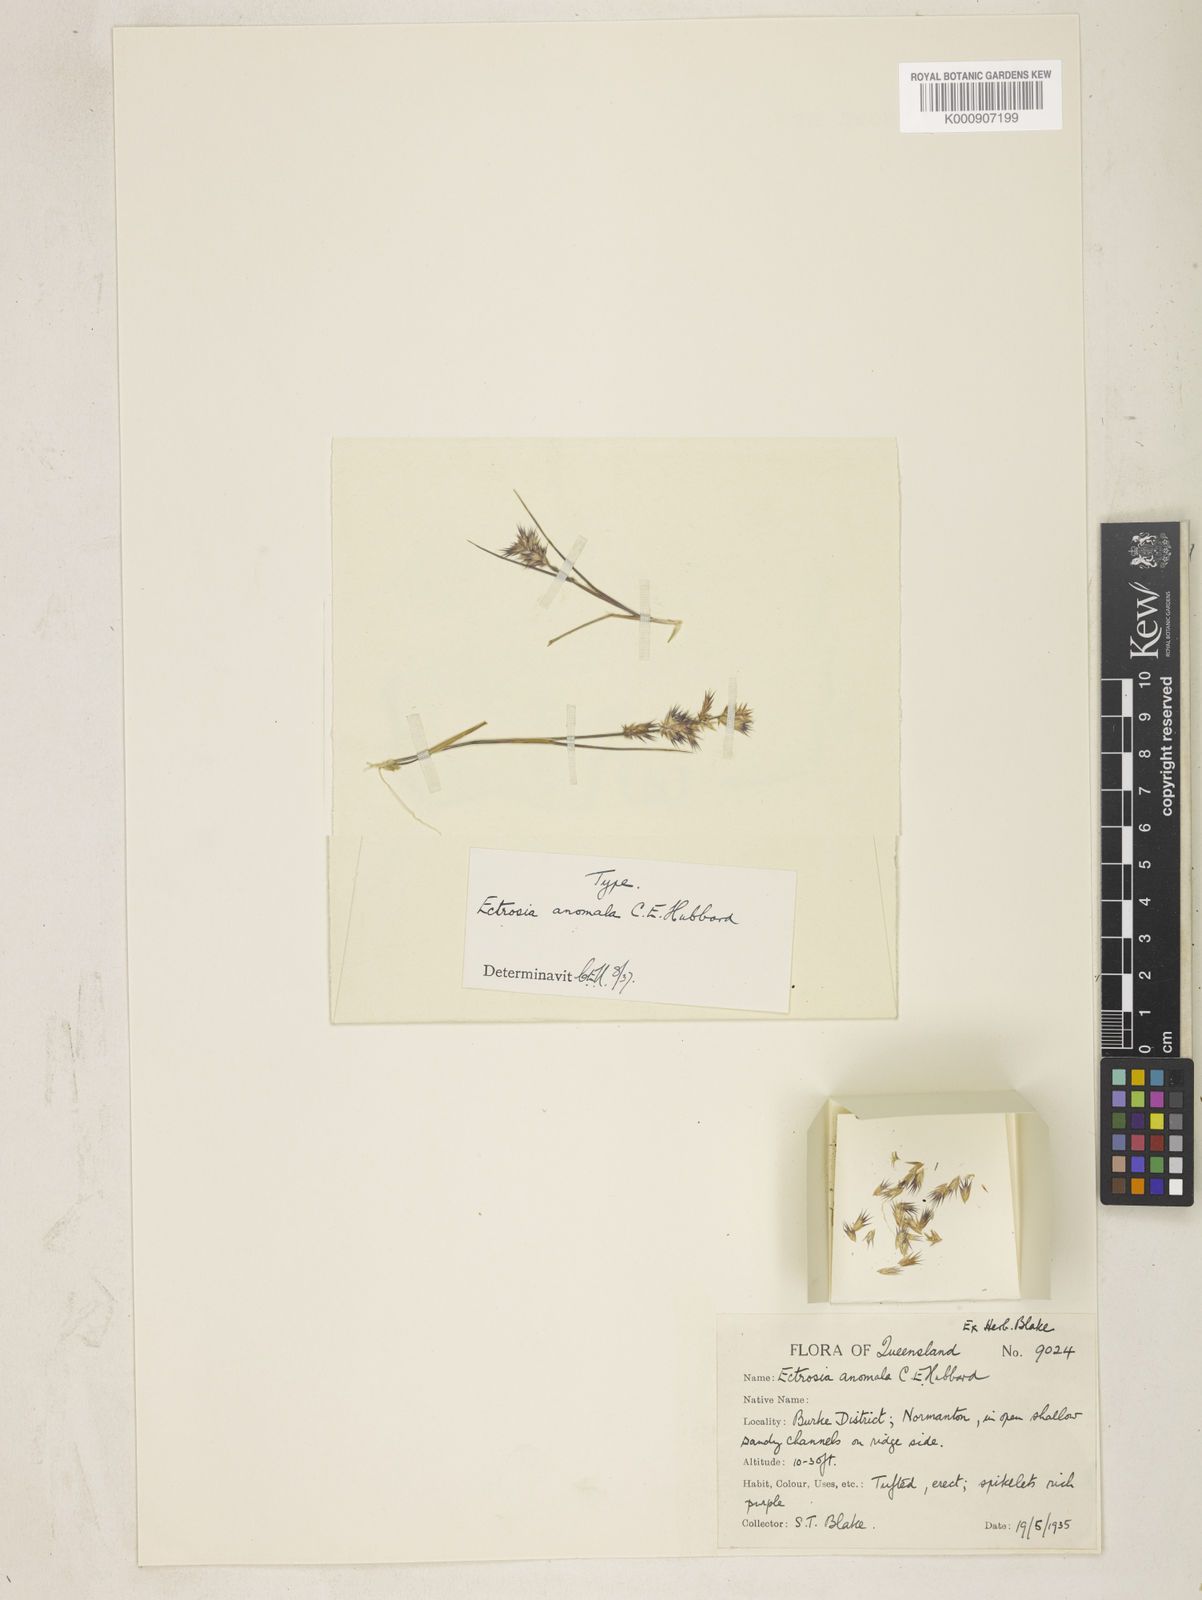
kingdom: Plantae
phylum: Tracheophyta
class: Liliopsida
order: Poales
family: Poaceae
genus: Eragrostis
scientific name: Eragrostis anomala
